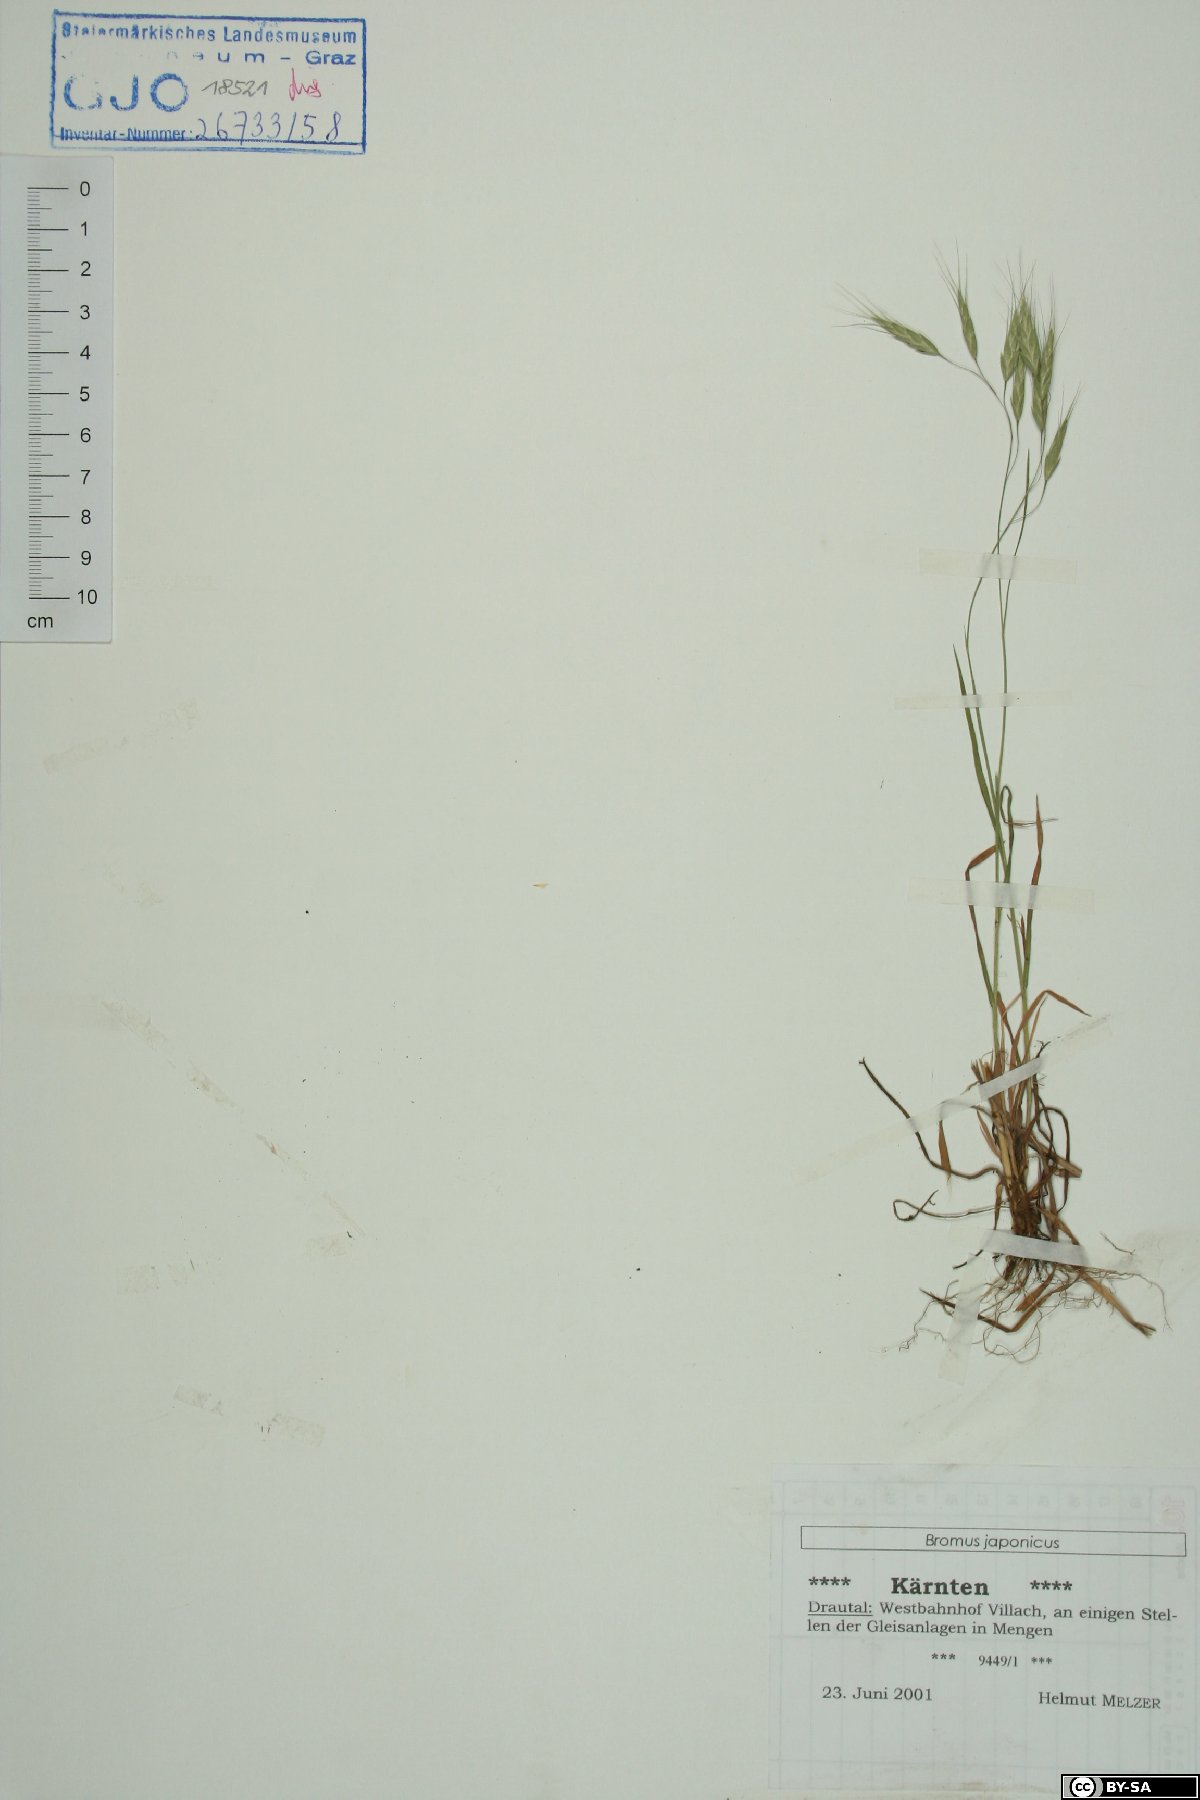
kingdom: Plantae
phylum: Tracheophyta
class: Liliopsida
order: Poales
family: Poaceae
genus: Bromus
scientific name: Bromus japonicus
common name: Japanese brome
